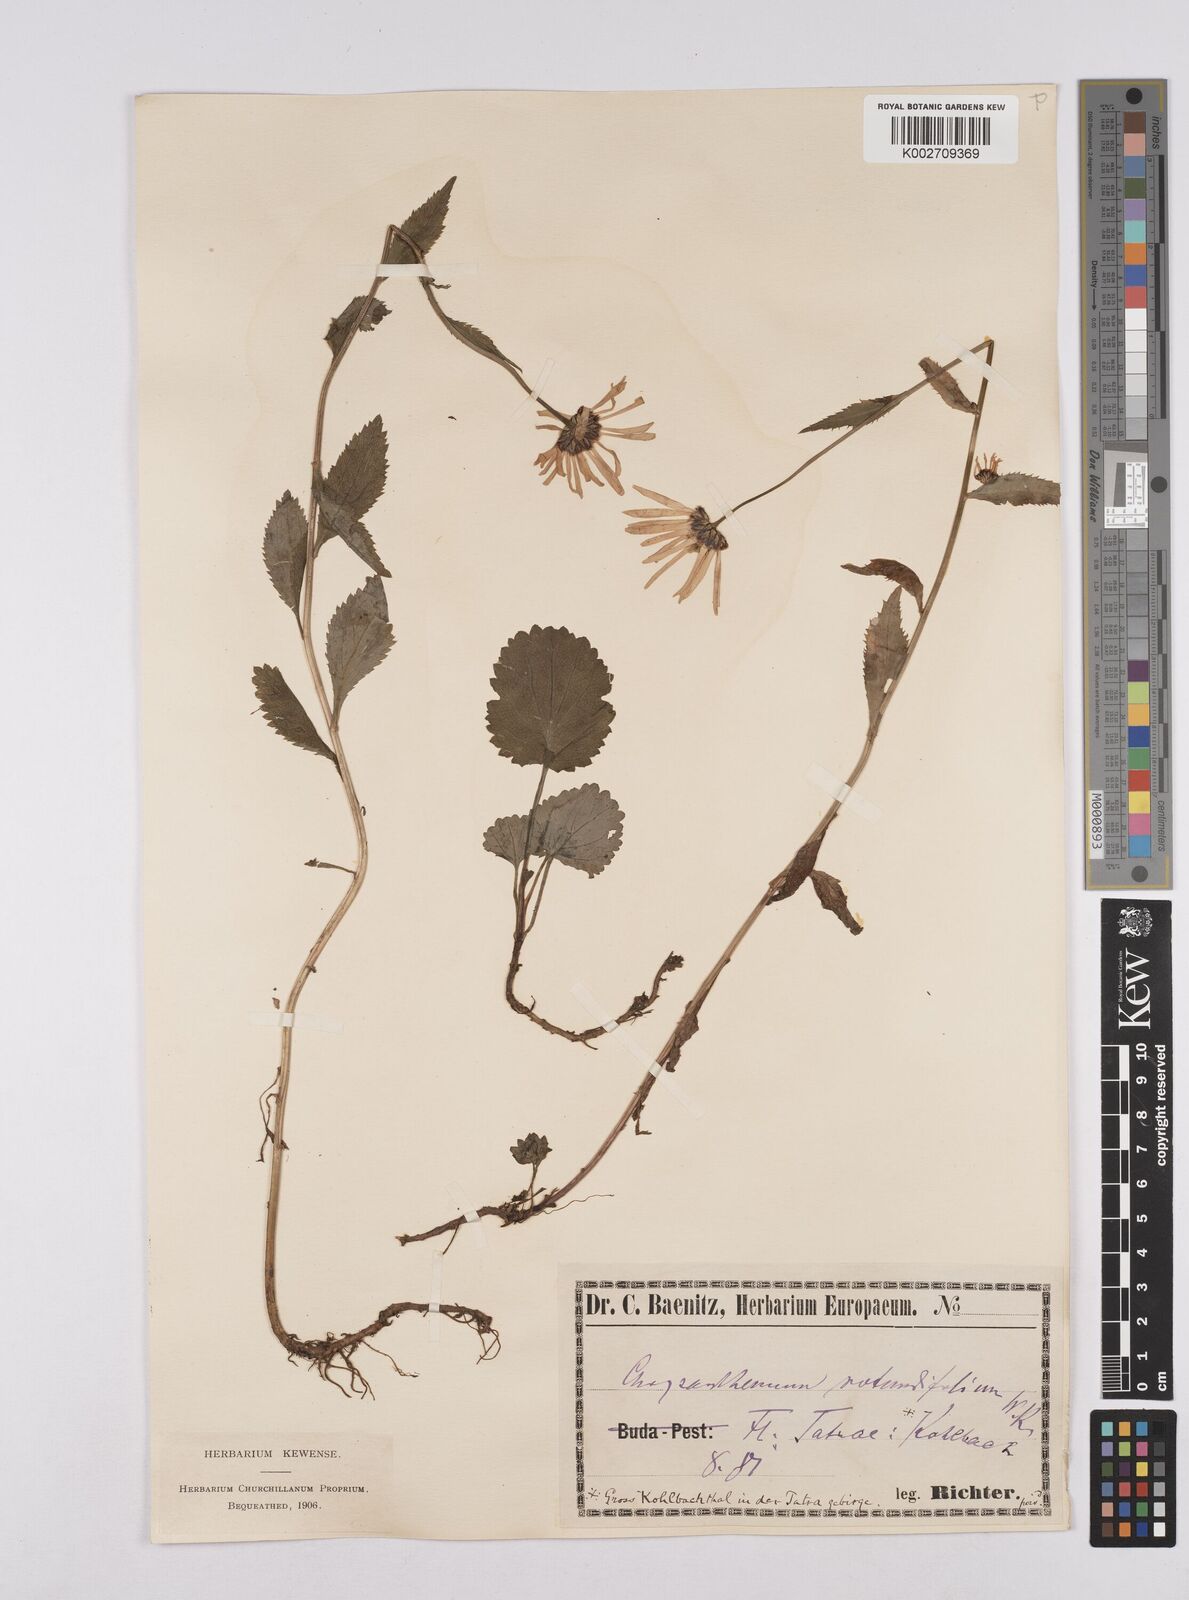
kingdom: Plantae
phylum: Tracheophyta
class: Magnoliopsida
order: Asterales
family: Asteraceae
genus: Leucanthemum
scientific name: Leucanthemum rotundifolium
